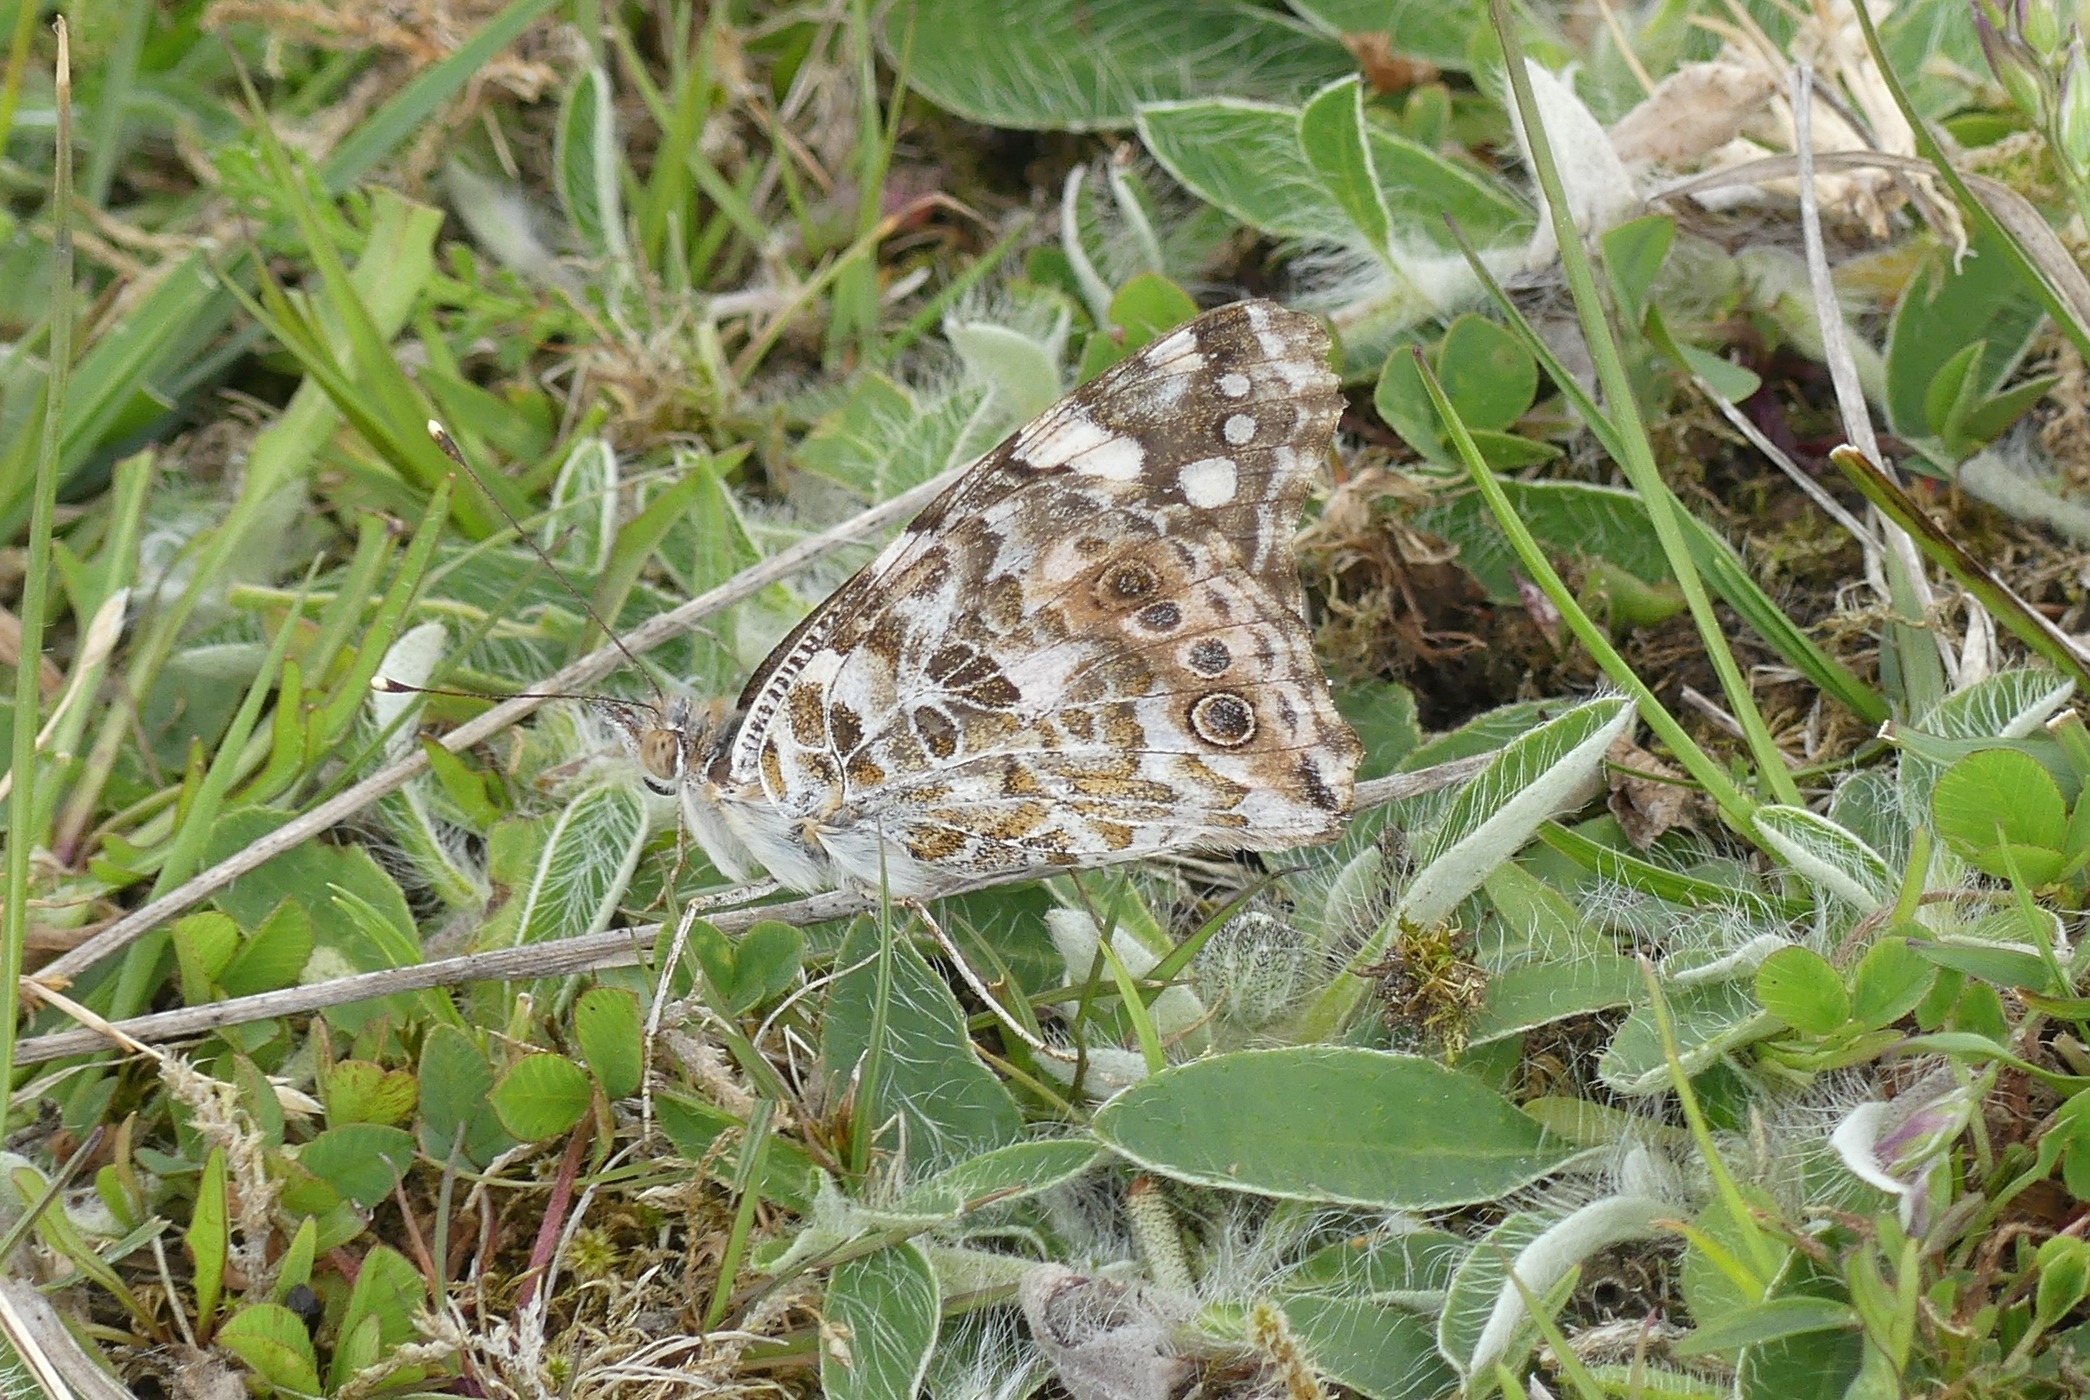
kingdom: Animalia
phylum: Arthropoda
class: Insecta
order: Lepidoptera
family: Nymphalidae
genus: Vanessa
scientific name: Vanessa cardui
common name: Tidselsommerfugl
